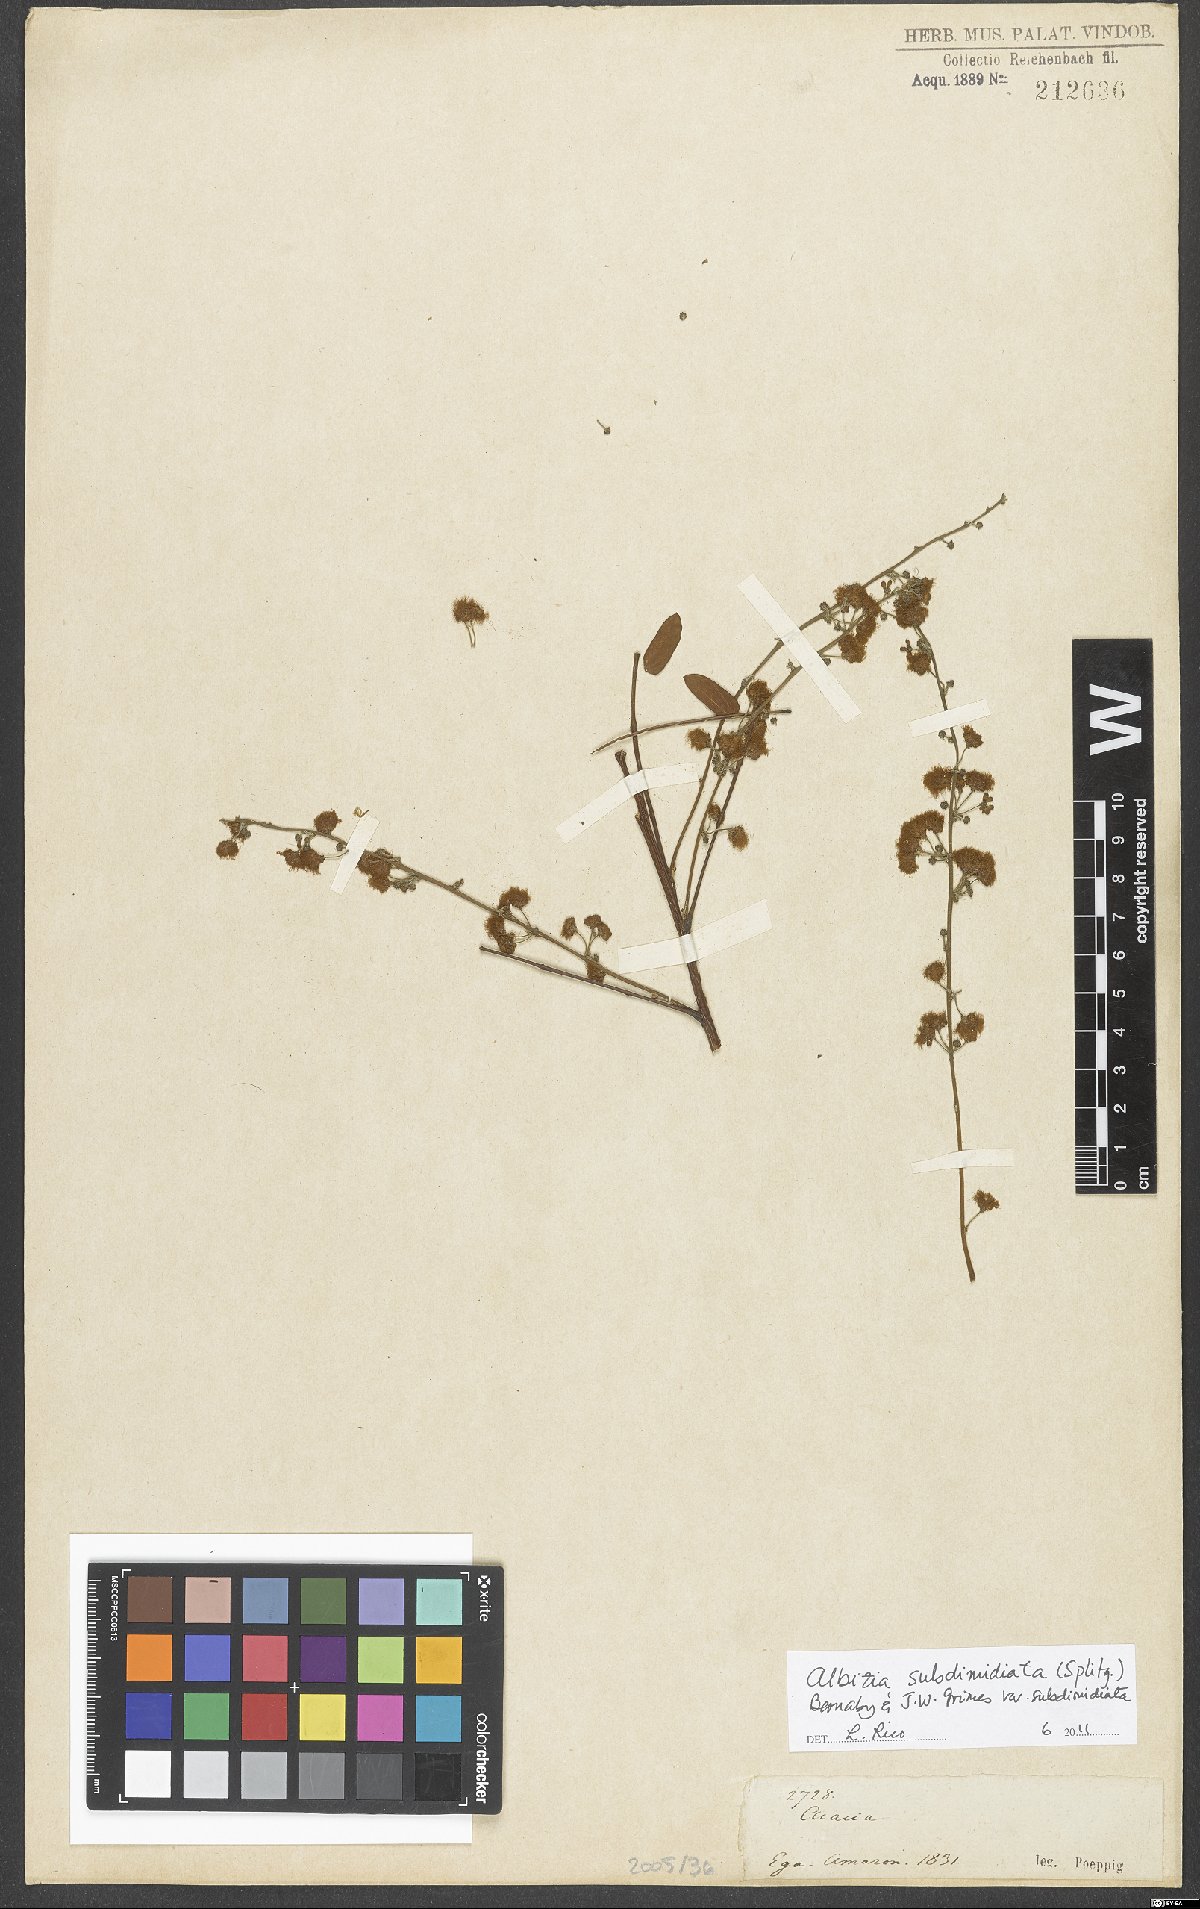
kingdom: Plantae
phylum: Tracheophyta
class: Magnoliopsida
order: Fabales
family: Fabaceae
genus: Albizia
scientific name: Albizia subdimidiata
